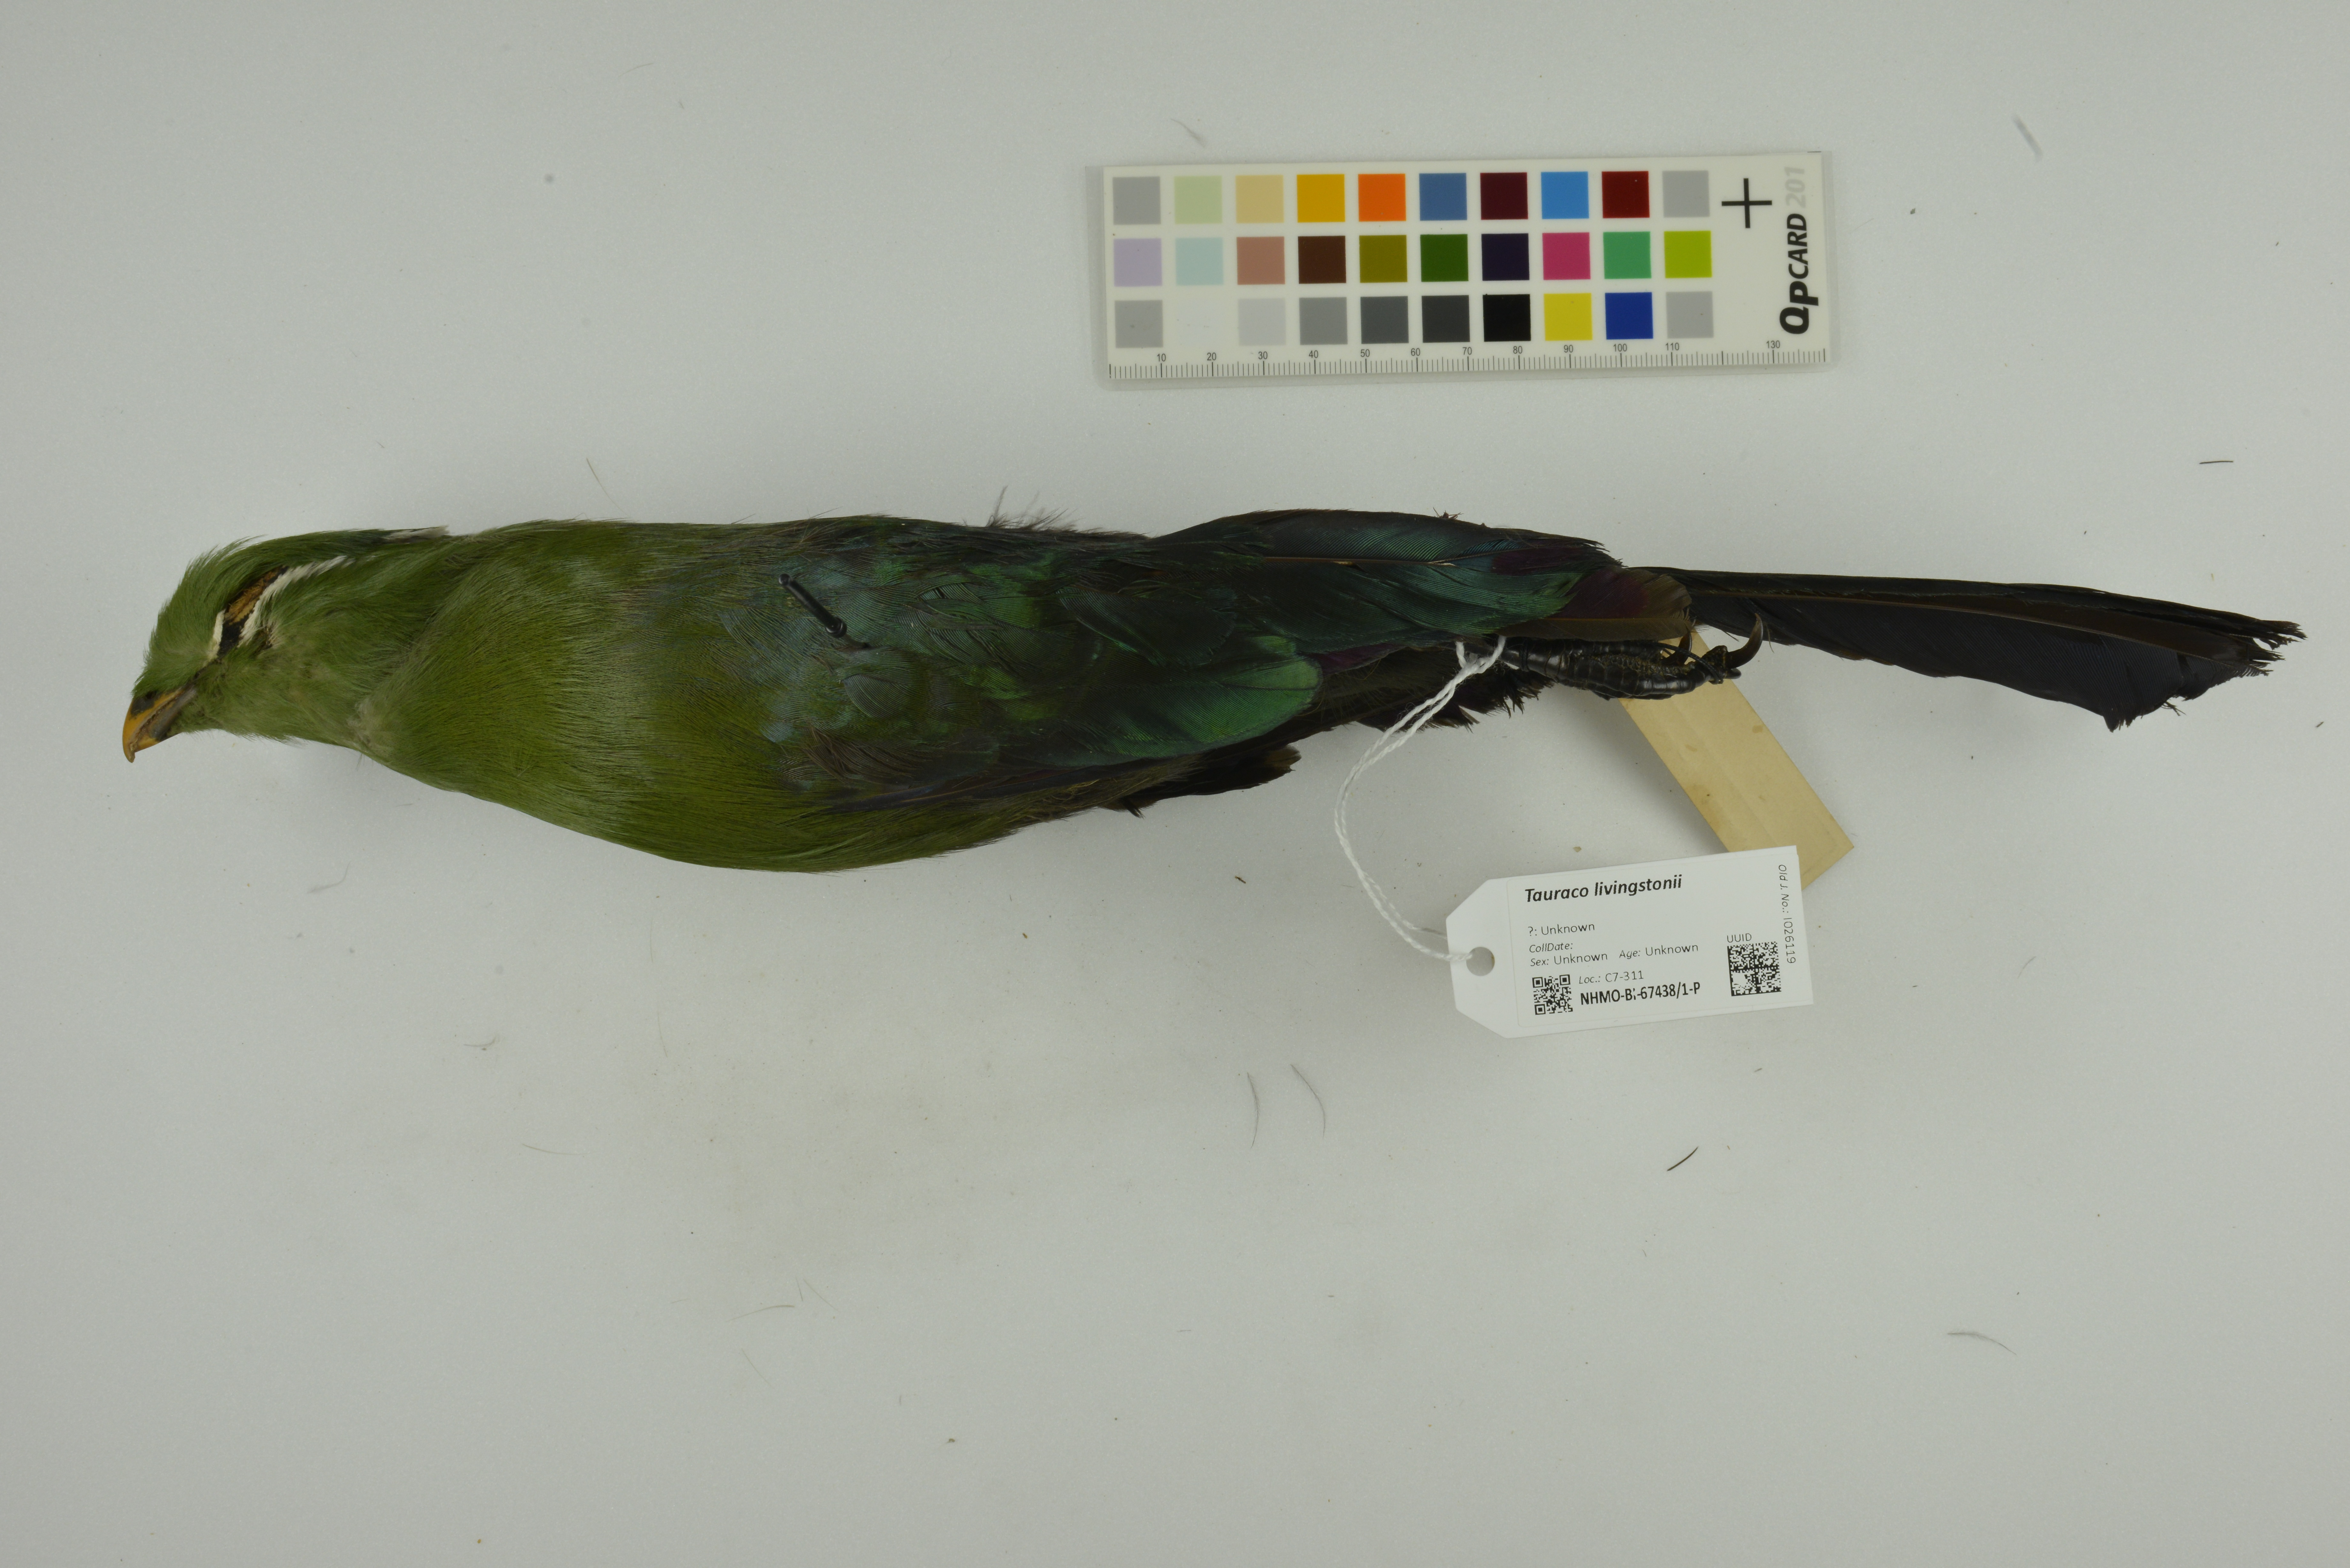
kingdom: Animalia
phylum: Chordata
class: Aves
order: Musophagiformes
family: Musophagidae
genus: Tauraco
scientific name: Tauraco livingstonii
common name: Livingstone's turaco
